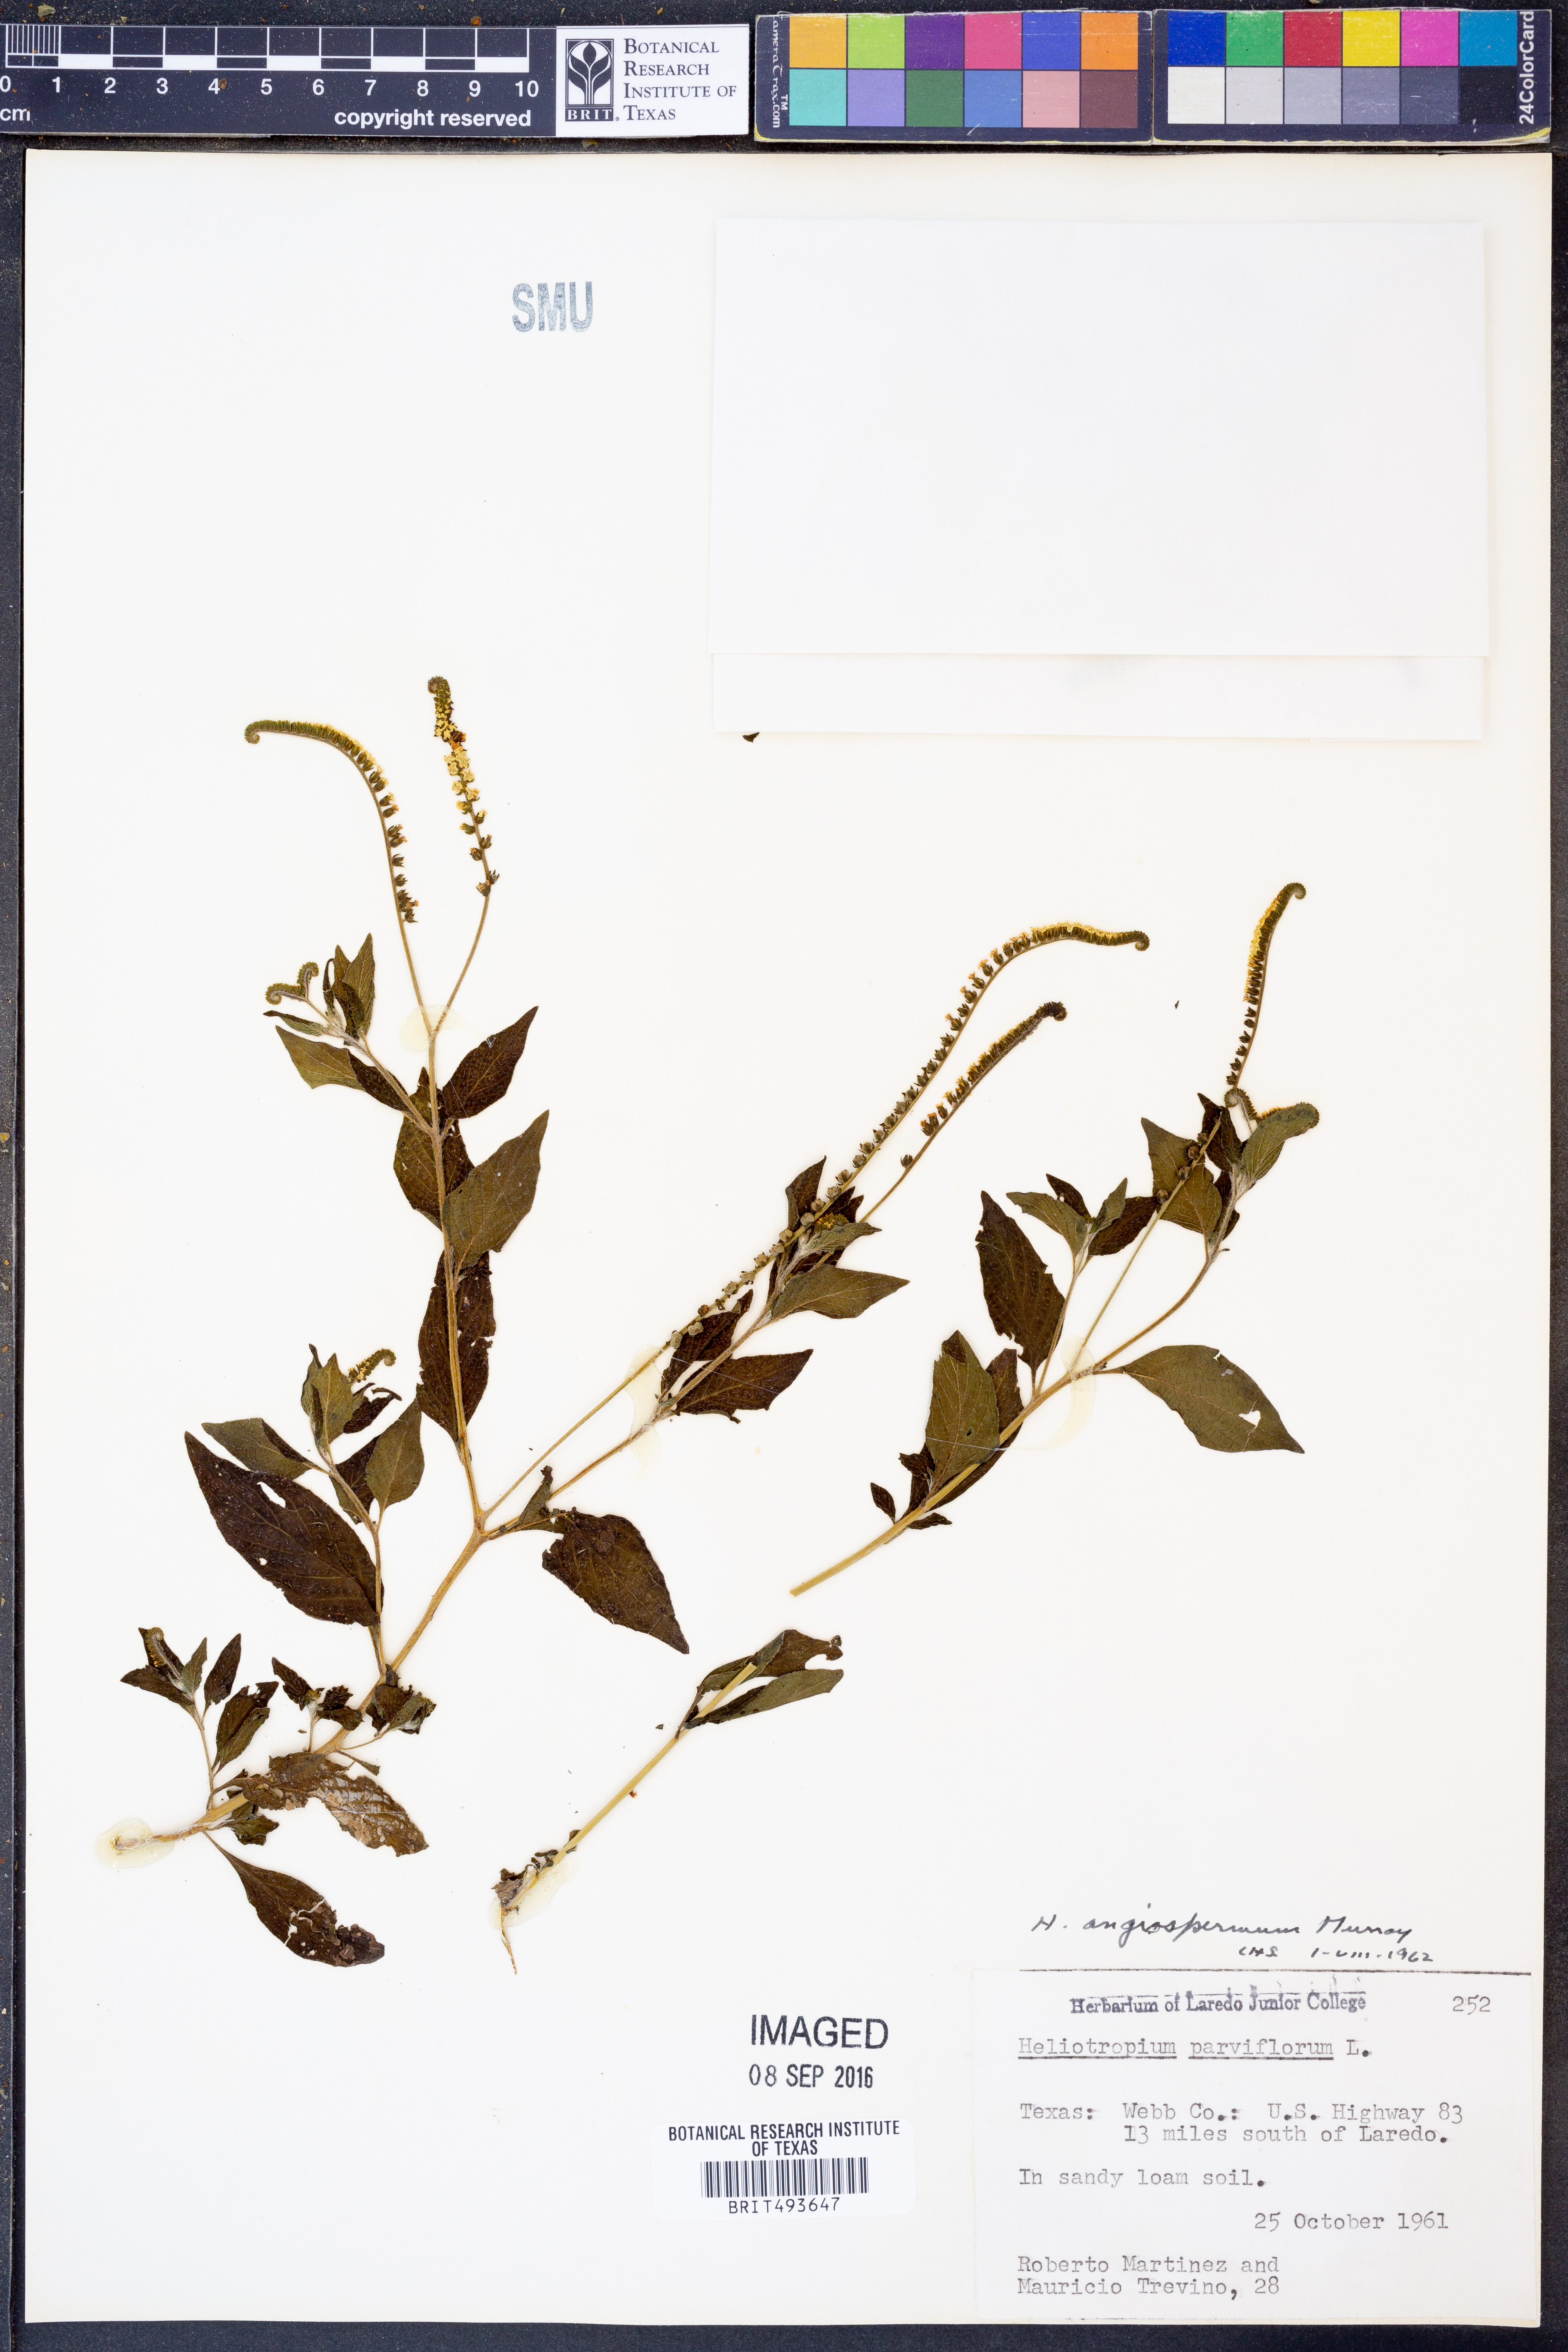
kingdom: Plantae
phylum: Tracheophyta
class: Magnoliopsida
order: Boraginales
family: Heliotropiaceae
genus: Heliotropium
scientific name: Heliotropium angiospermum
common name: Eye bright
